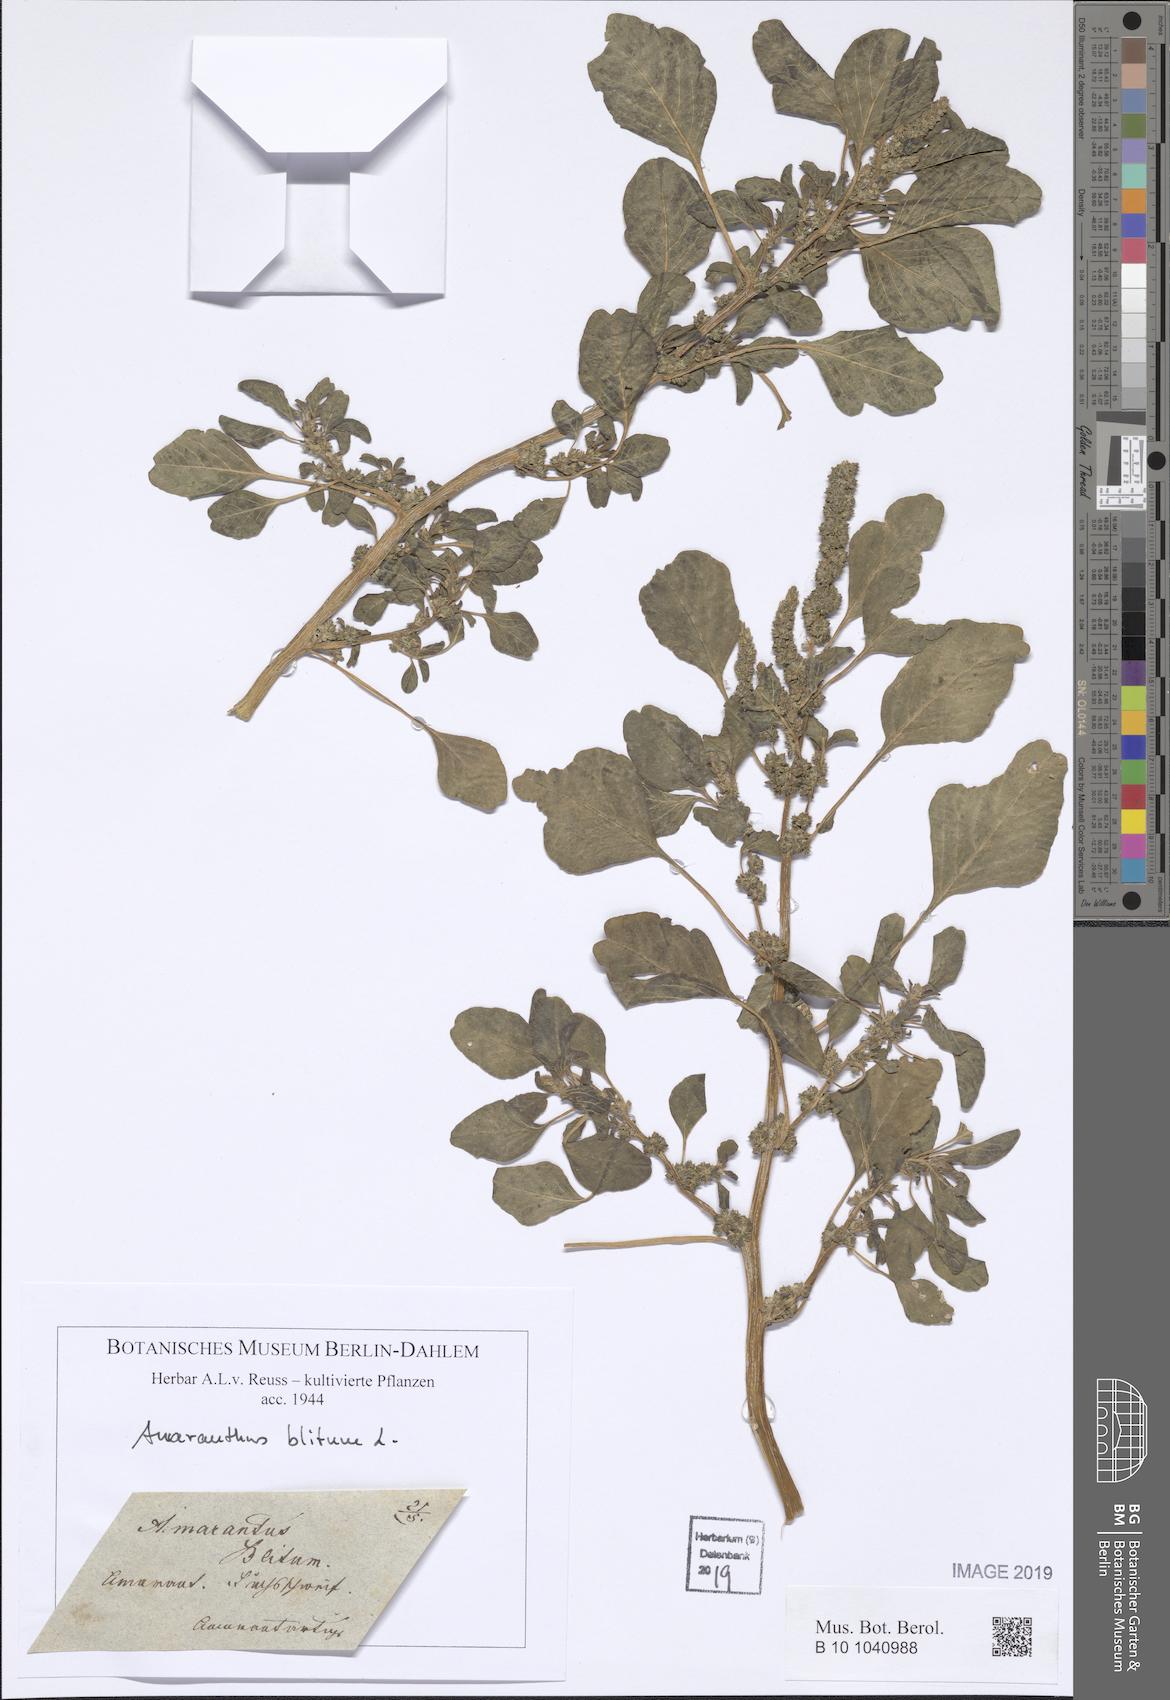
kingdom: Plantae
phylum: Tracheophyta
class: Magnoliopsida
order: Caryophyllales
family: Amaranthaceae
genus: Amaranthus
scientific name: Amaranthus blitum
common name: Purple amaranth
